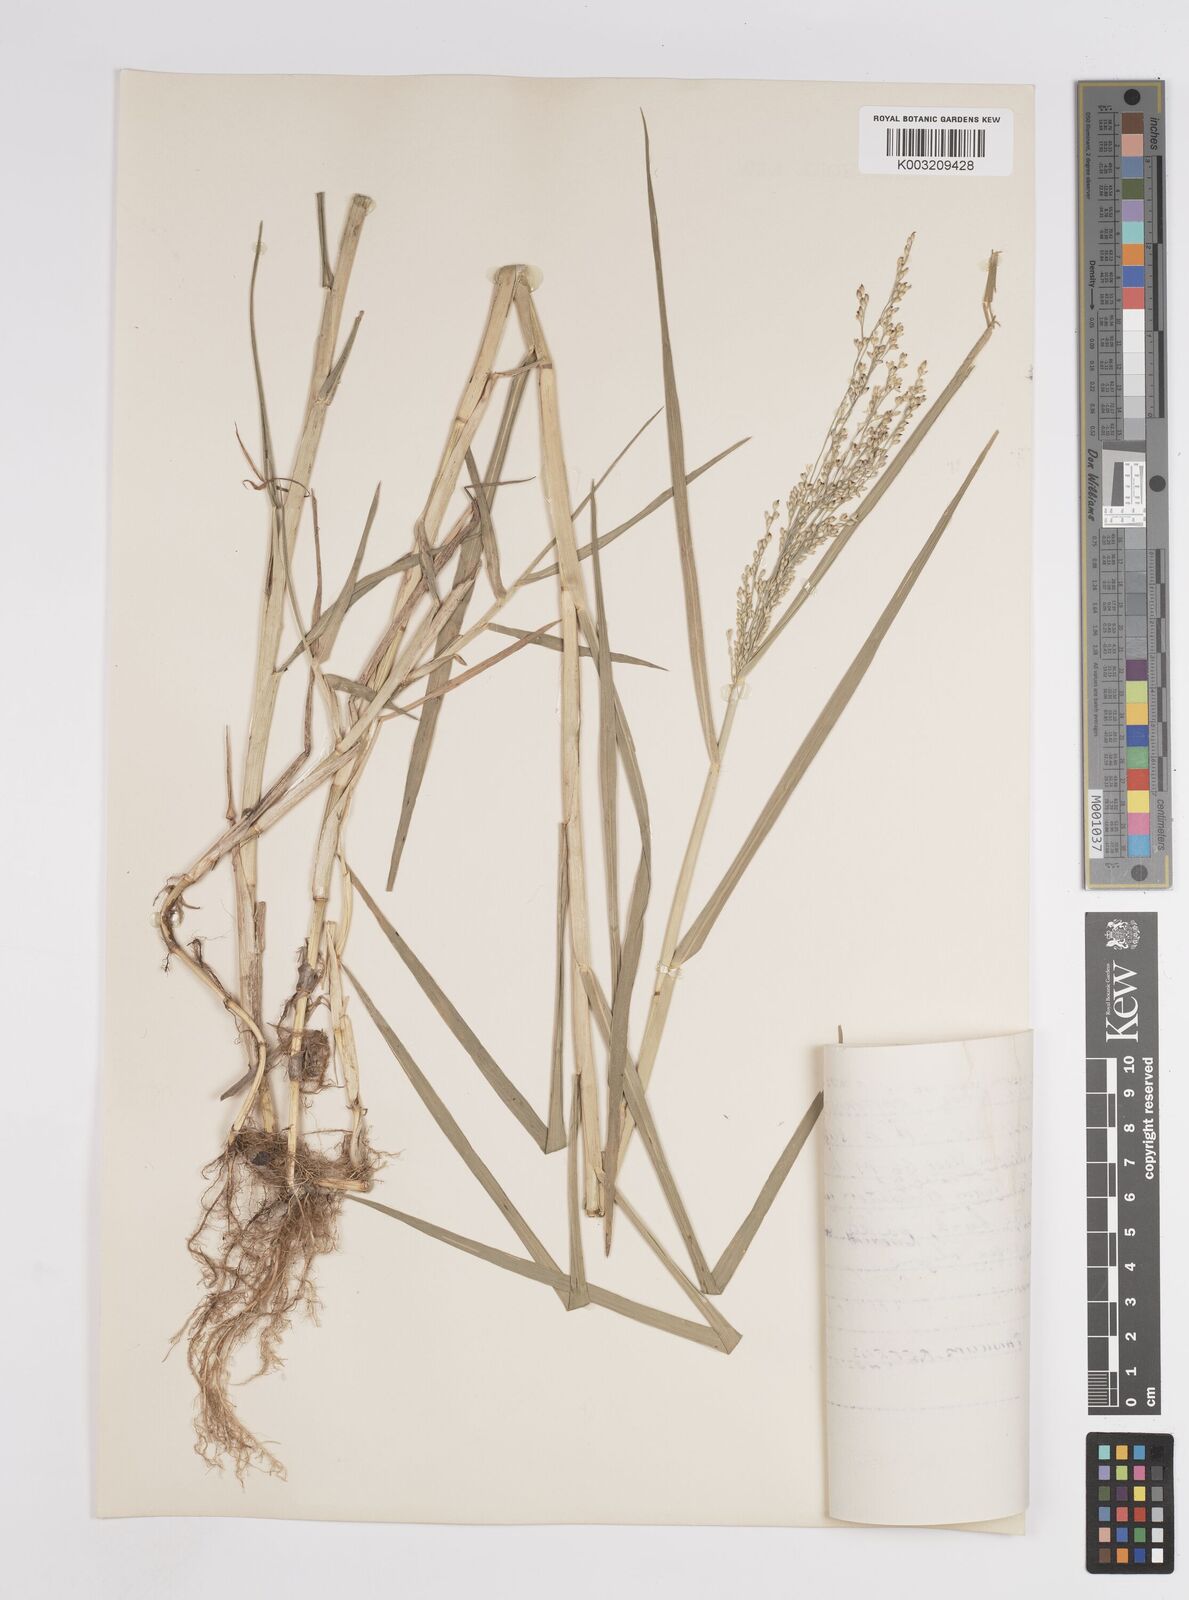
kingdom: Plantae
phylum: Tracheophyta
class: Liliopsida
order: Poales
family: Poaceae
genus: Panicum
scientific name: Panicum repens
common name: Torpedo grass
